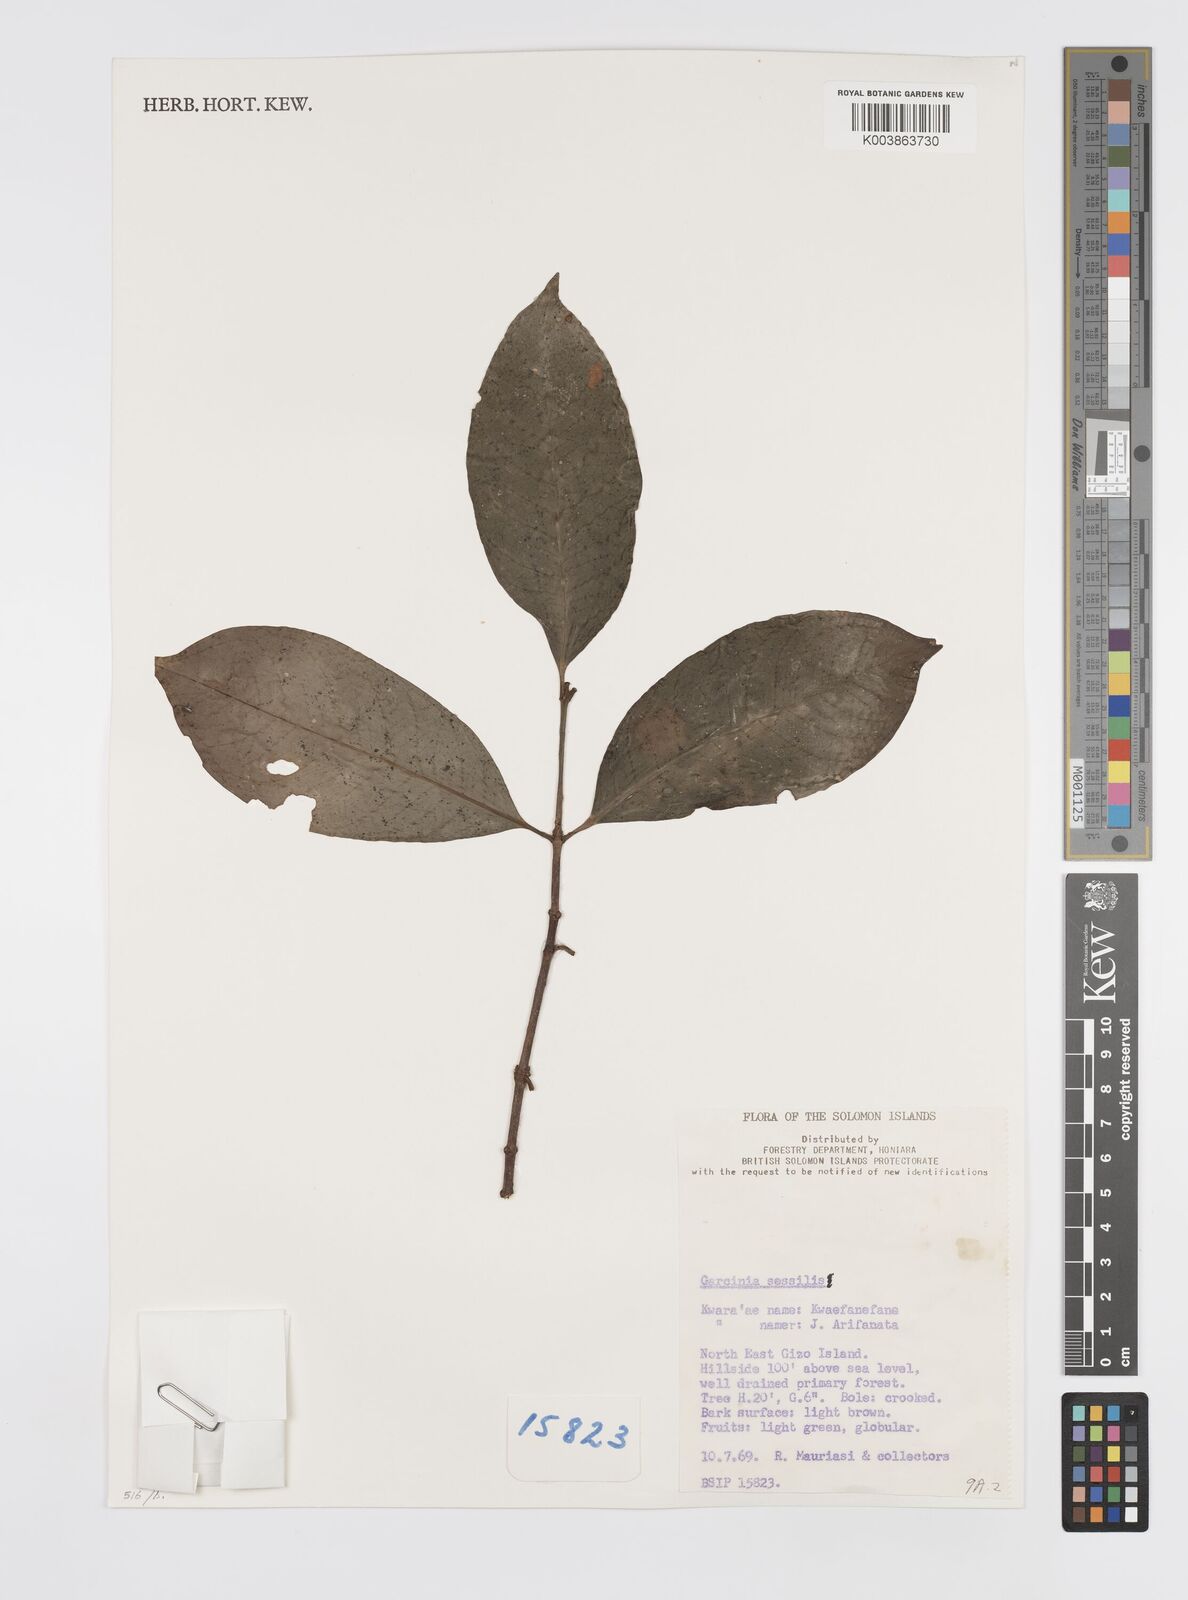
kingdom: Plantae
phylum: Tracheophyta
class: Magnoliopsida
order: Malpighiales
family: Clusiaceae
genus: Garcinia
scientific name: Garcinia sessilis
